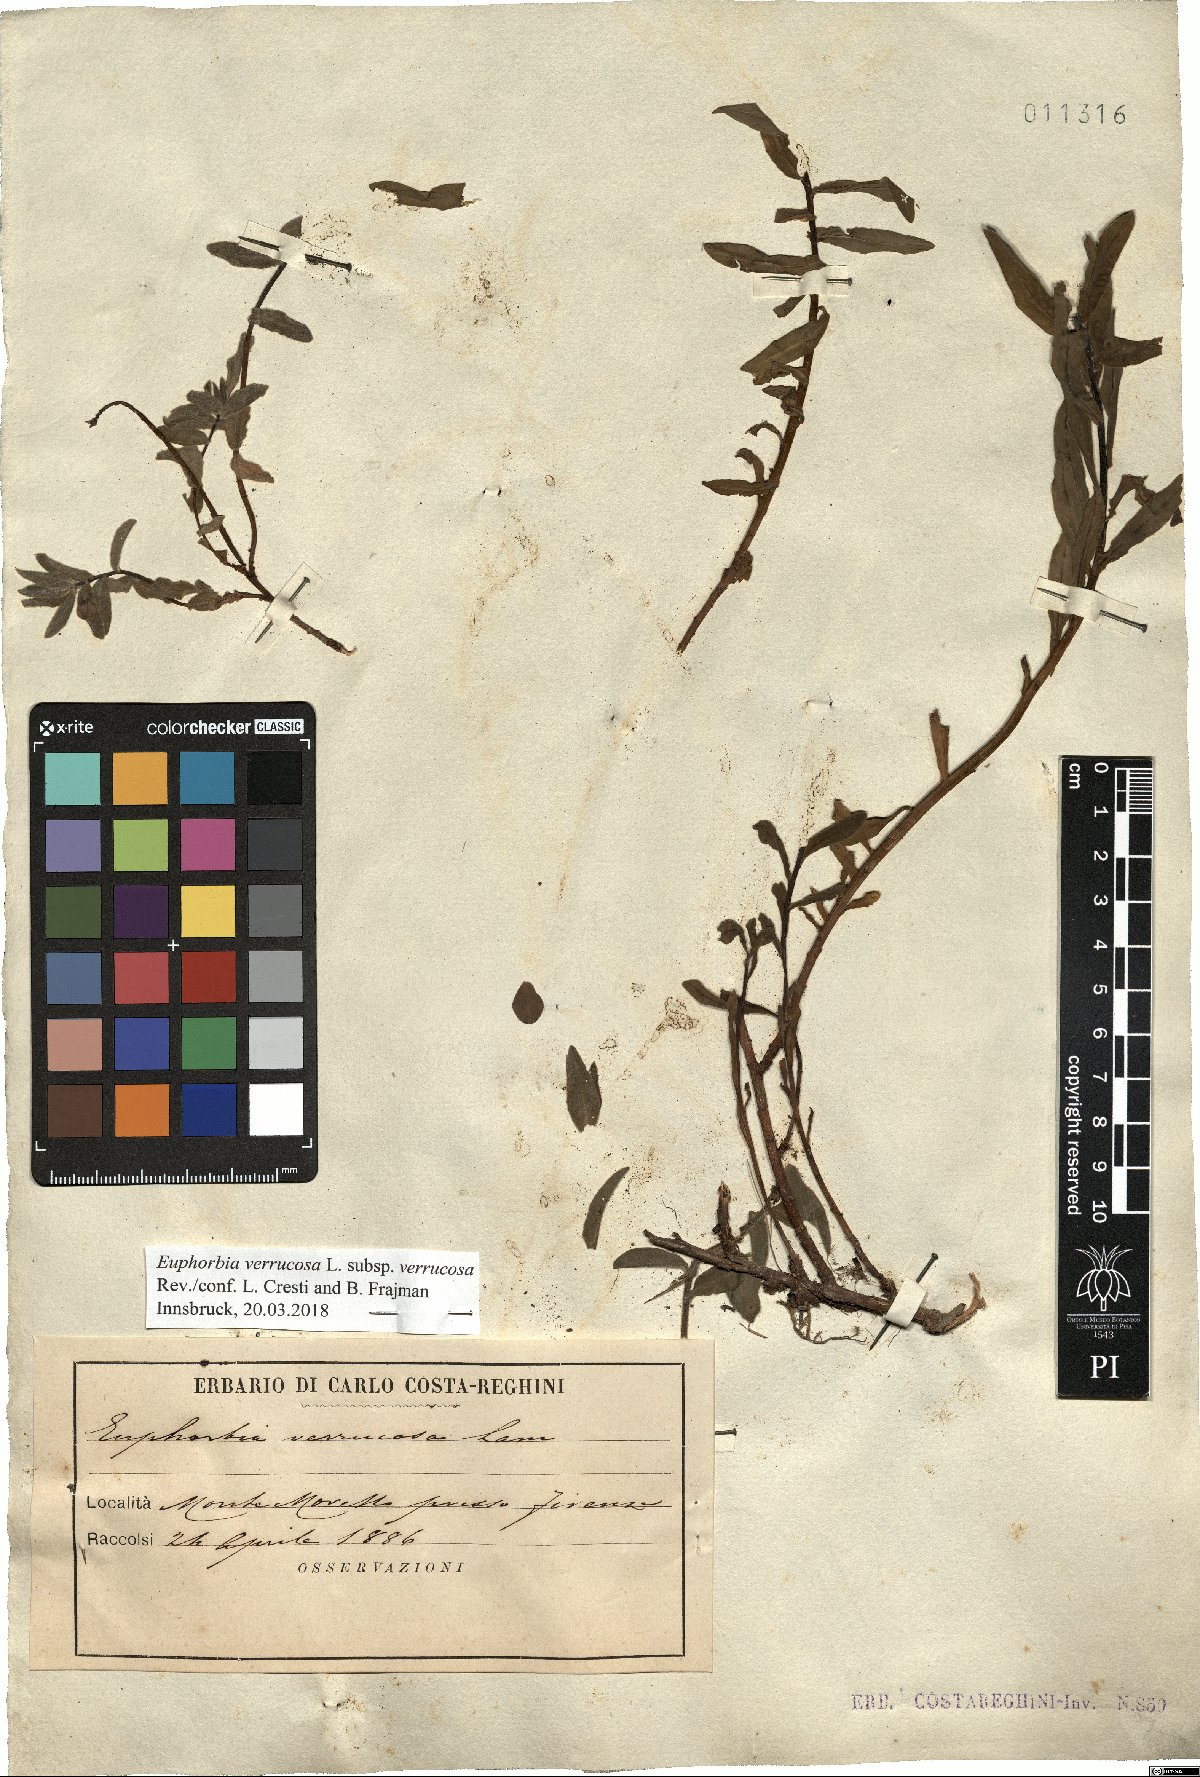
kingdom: Plantae
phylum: Tracheophyta
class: Magnoliopsida
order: Malpighiales
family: Euphorbiaceae
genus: Euphorbia
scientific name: Euphorbia verrucosa
